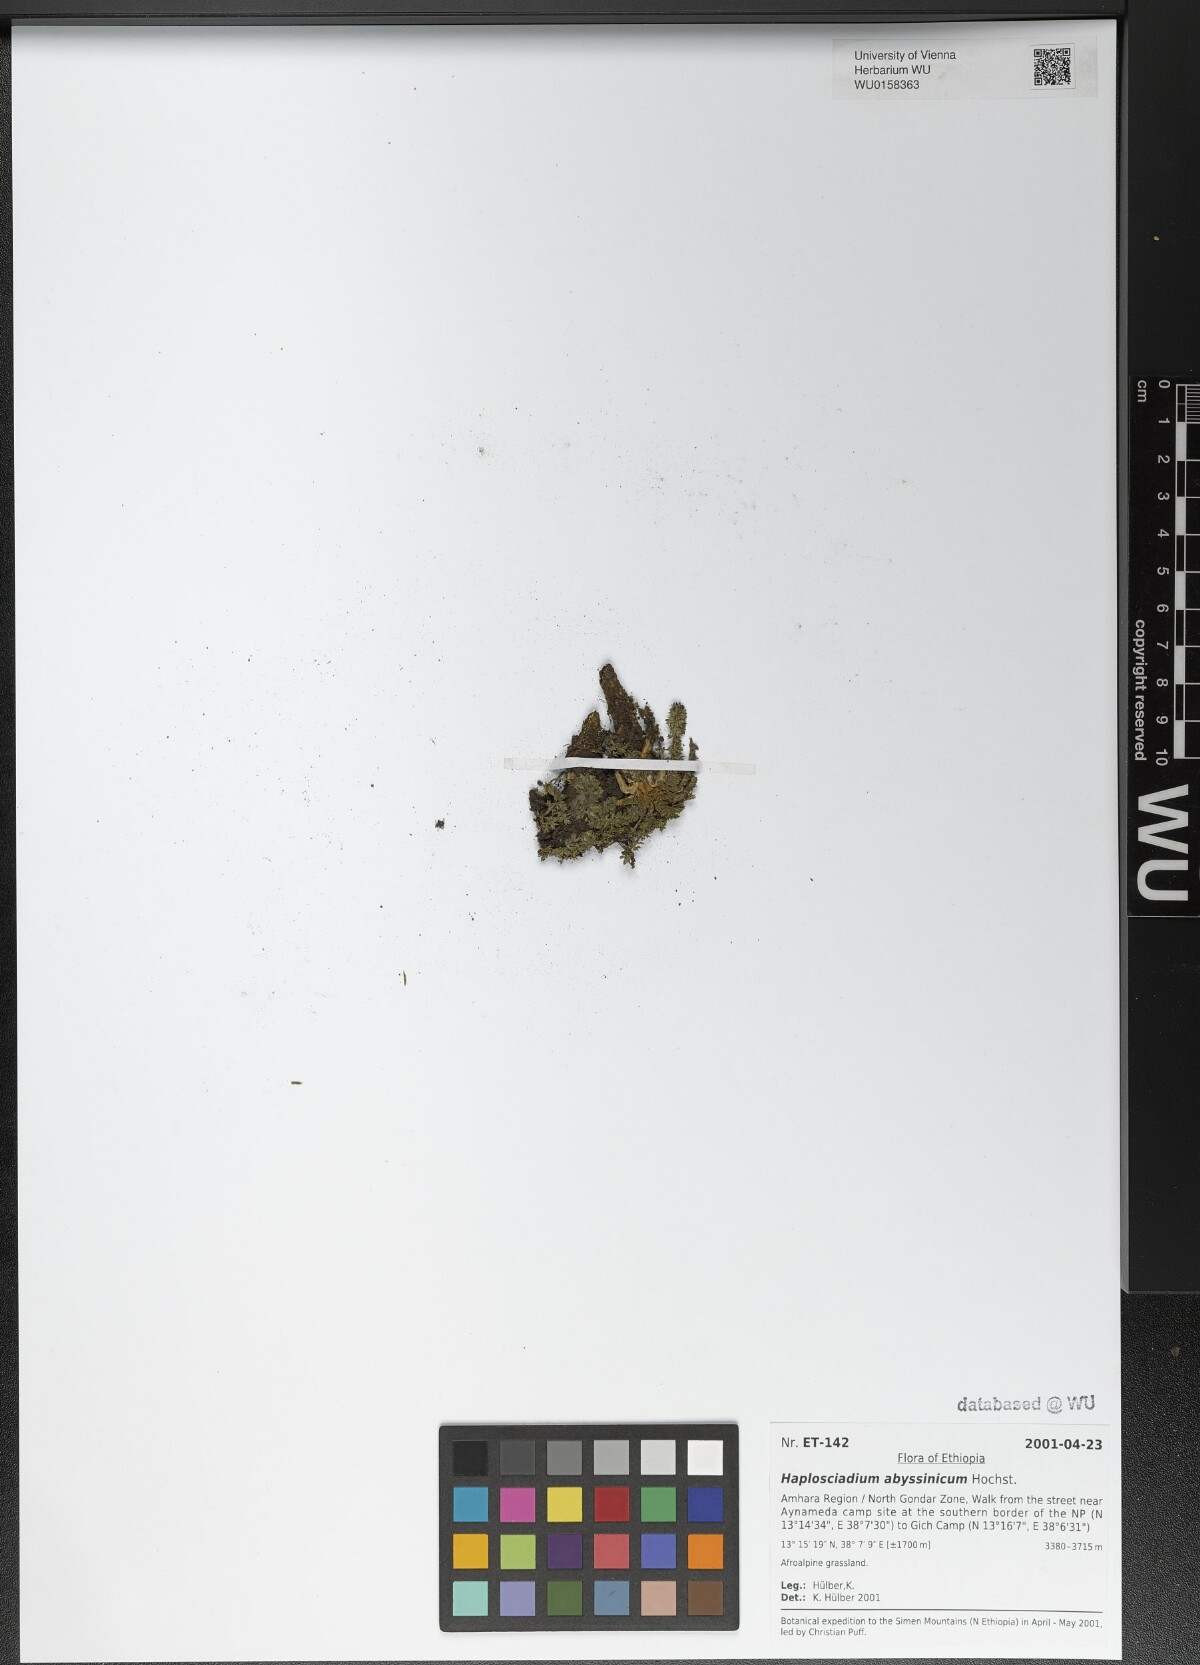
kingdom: Plantae
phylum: Tracheophyta
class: Magnoliopsida
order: Apiales
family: Apiaceae
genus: Haplosciadium
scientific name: Haplosciadium abyssinicum
